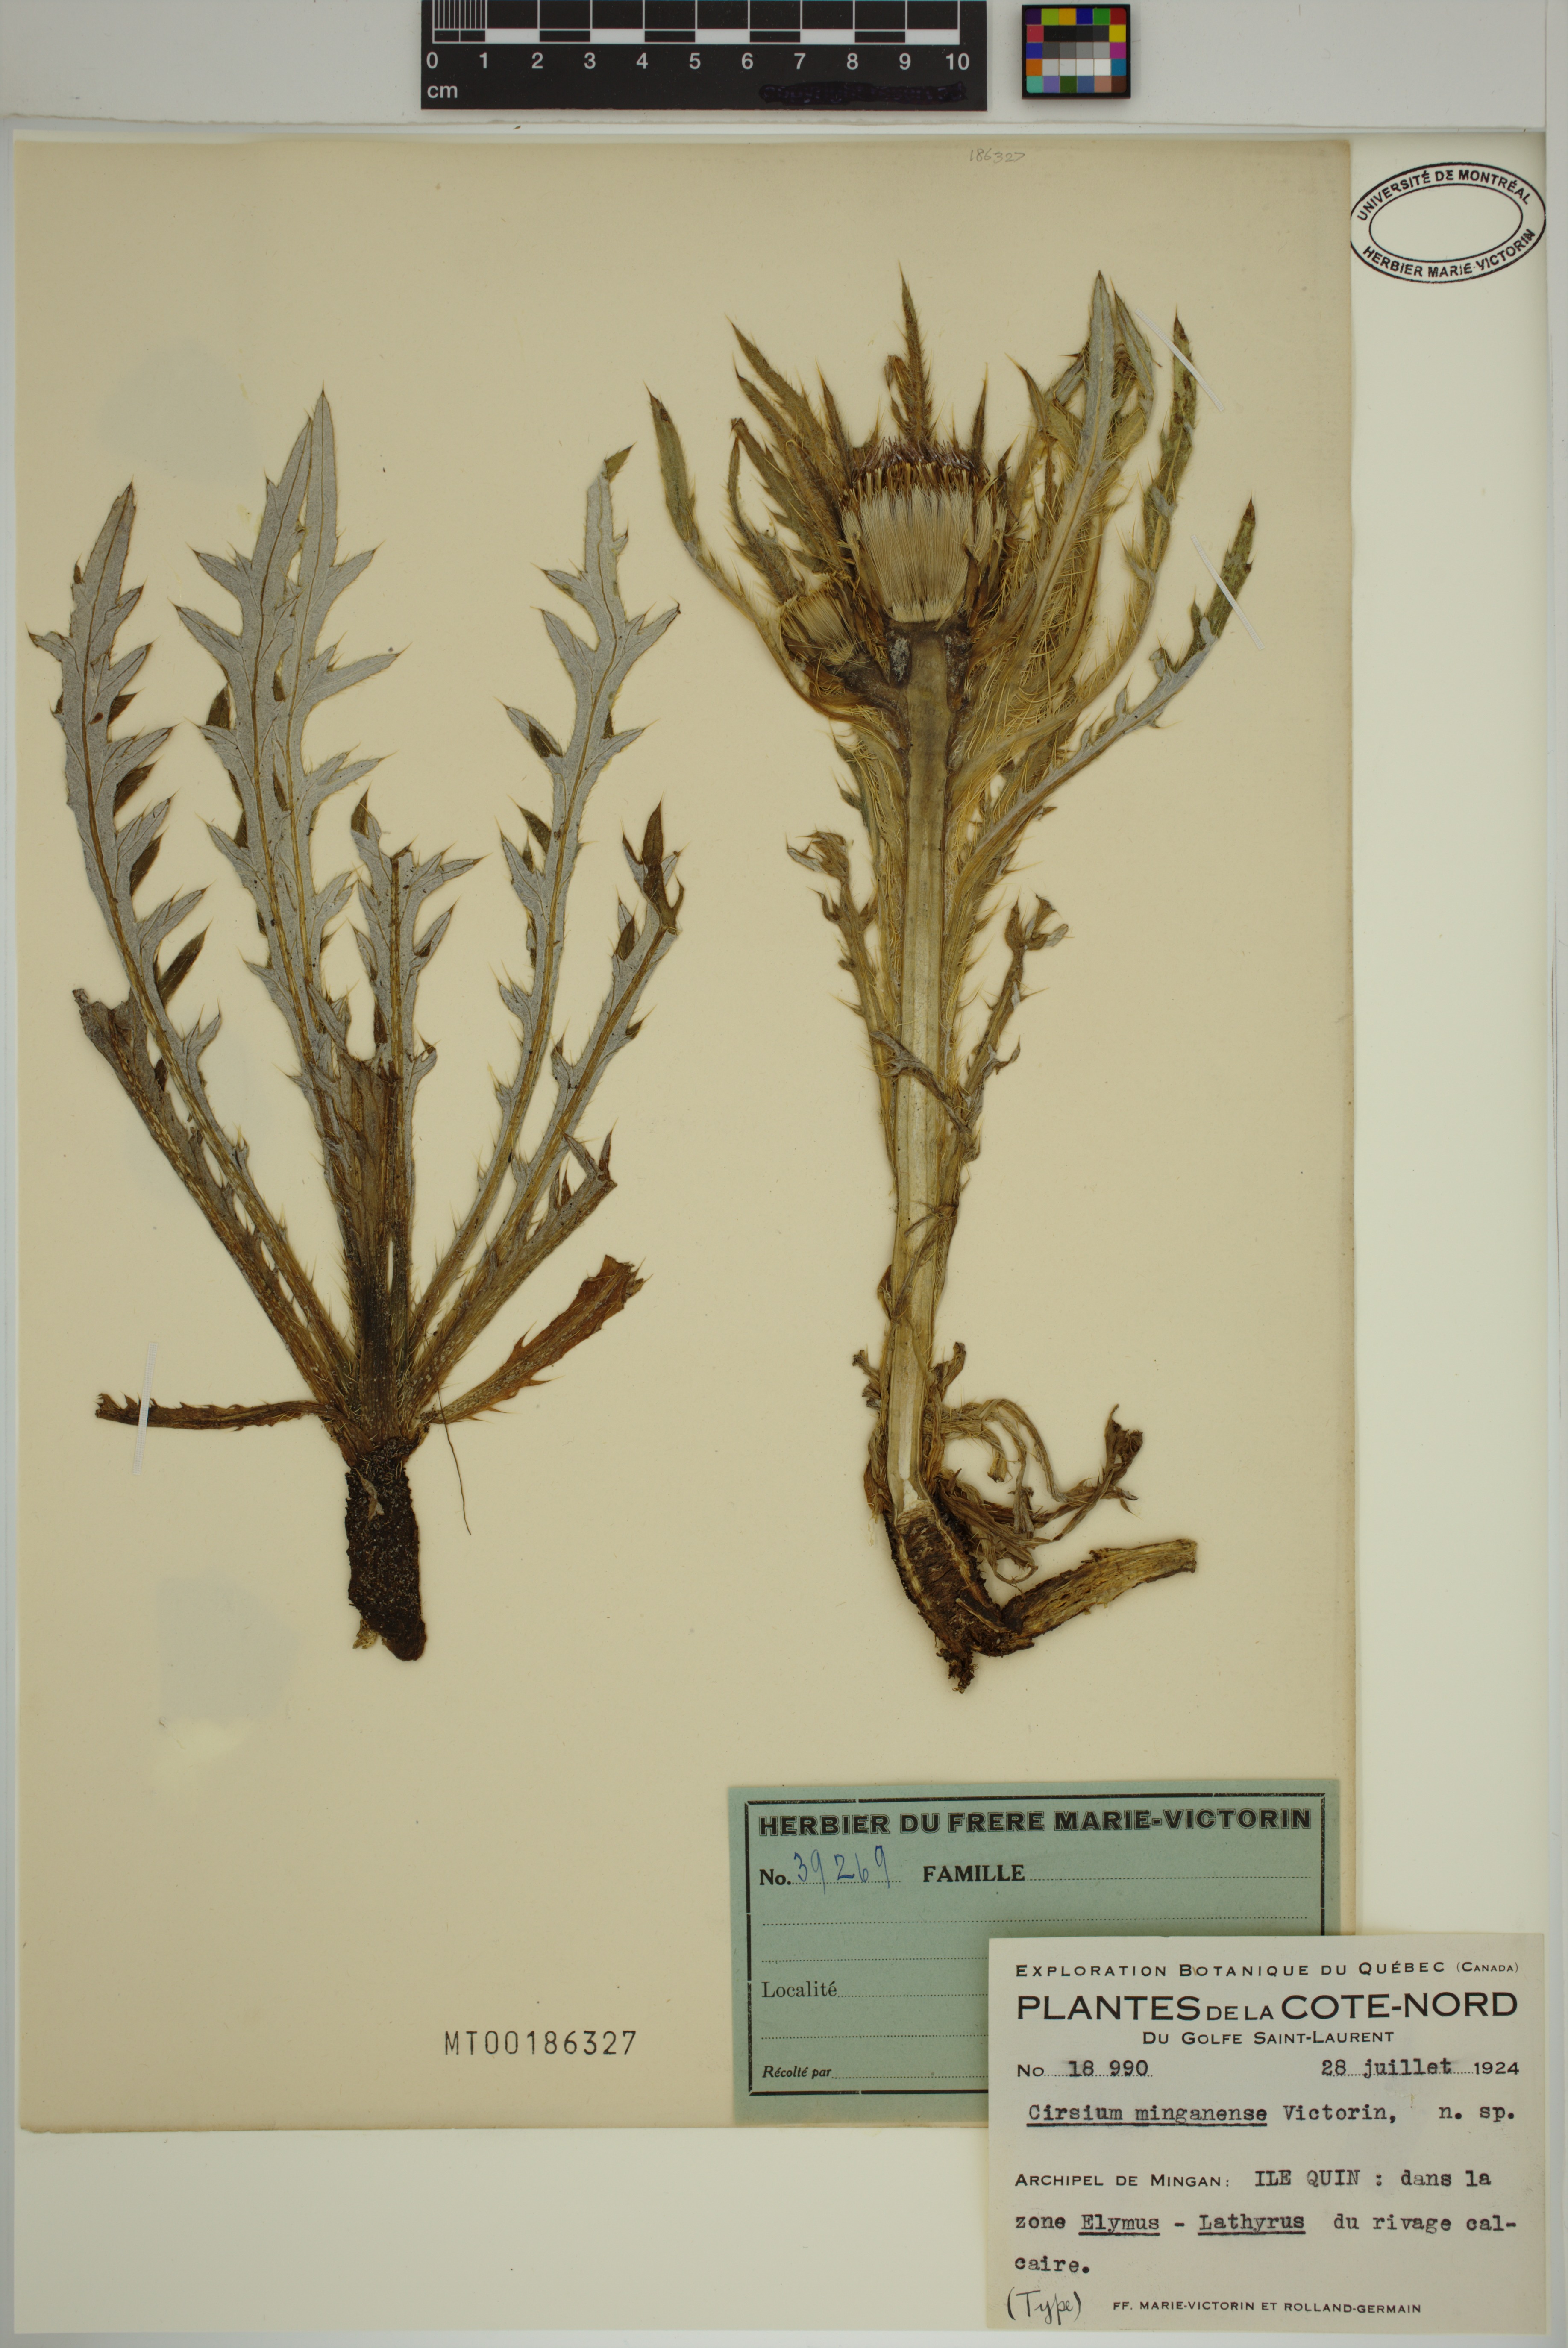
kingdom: Plantae
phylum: Tracheophyta
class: Magnoliopsida
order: Asterales
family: Asteraceae
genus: Cirsium
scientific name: Cirsium scariosum
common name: Meadow thistle
